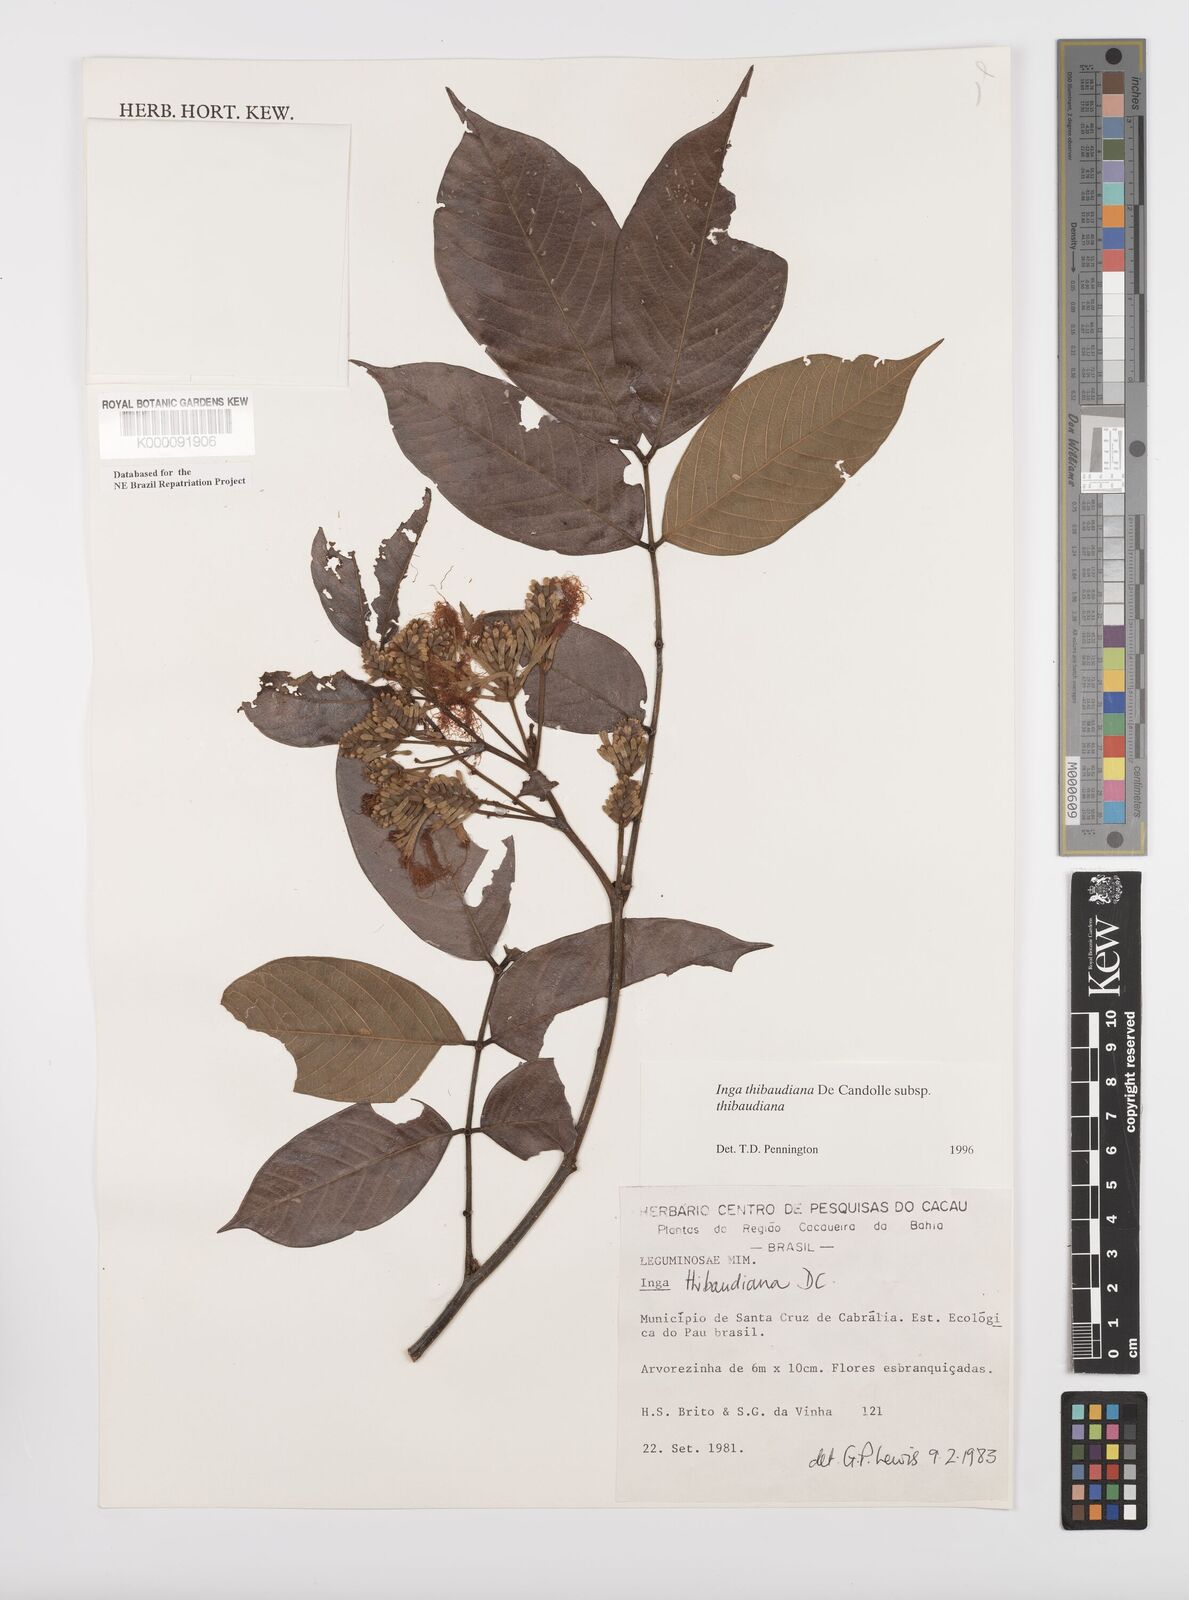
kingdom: Plantae
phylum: Tracheophyta
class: Magnoliopsida
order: Fabales
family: Fabaceae
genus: Inga
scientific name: Inga thibaudiana
